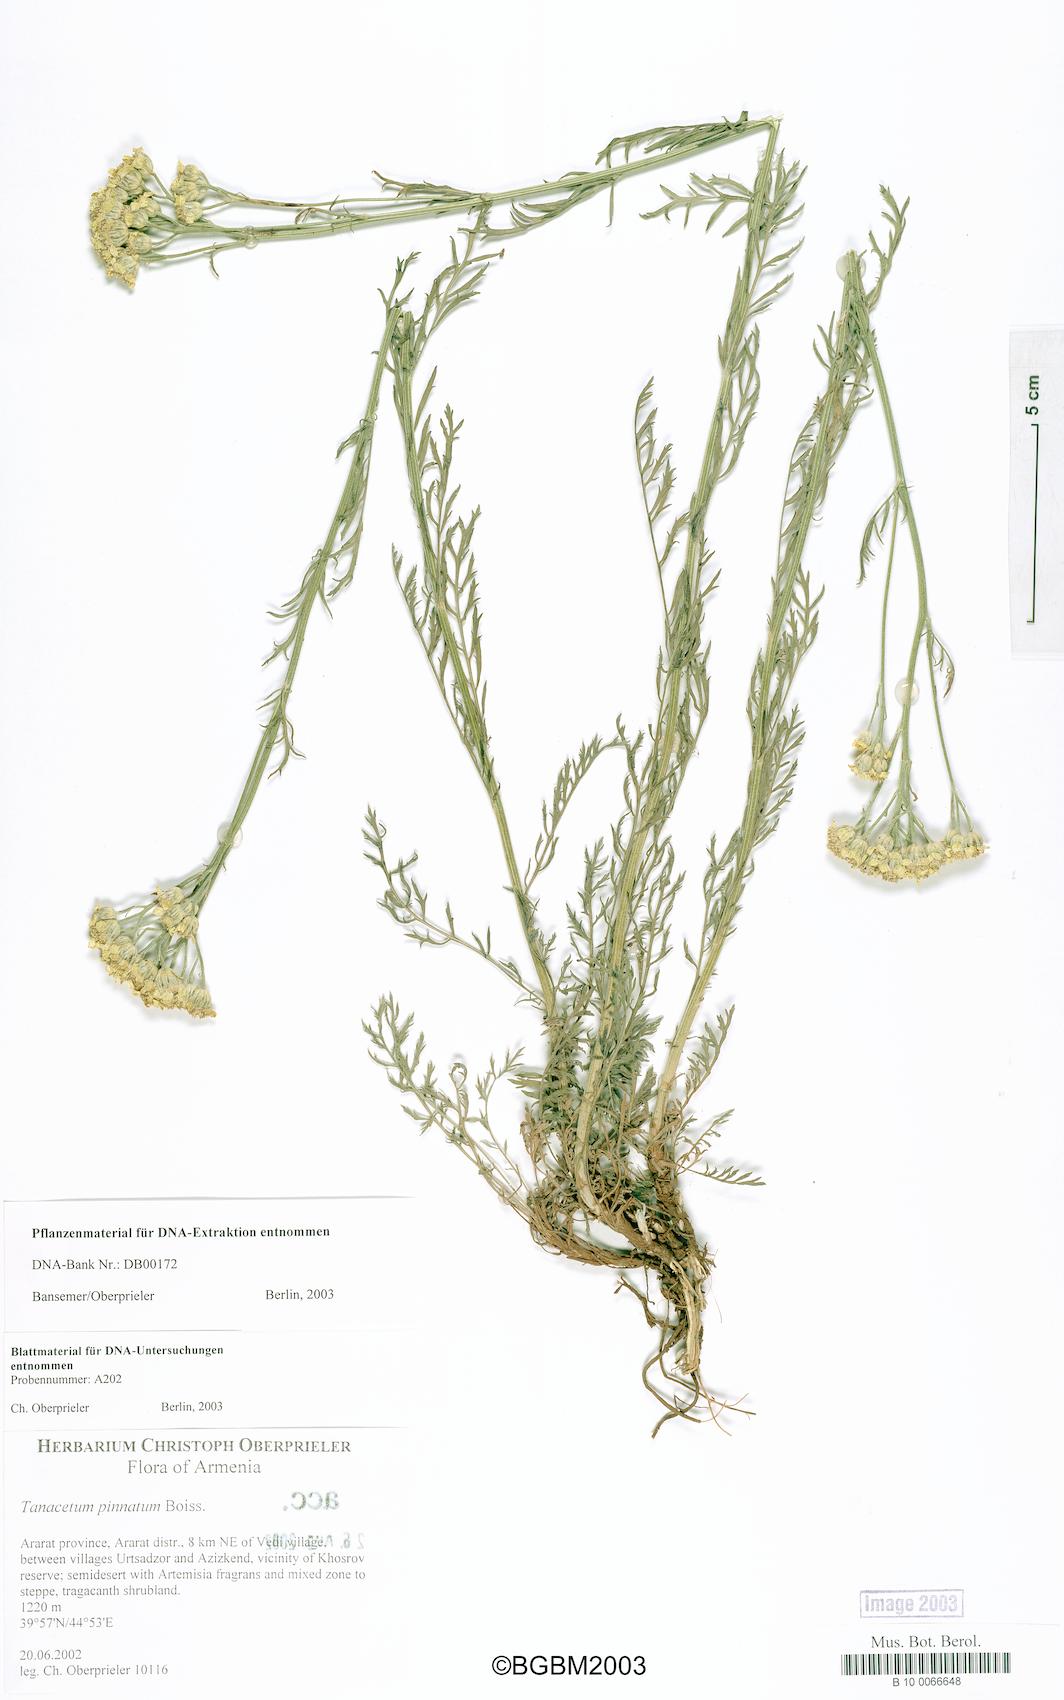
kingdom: Plantae
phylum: Tracheophyta
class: Magnoliopsida
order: Asterales
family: Asteraceae
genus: Tanacetum
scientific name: Tanacetum pinnatum
